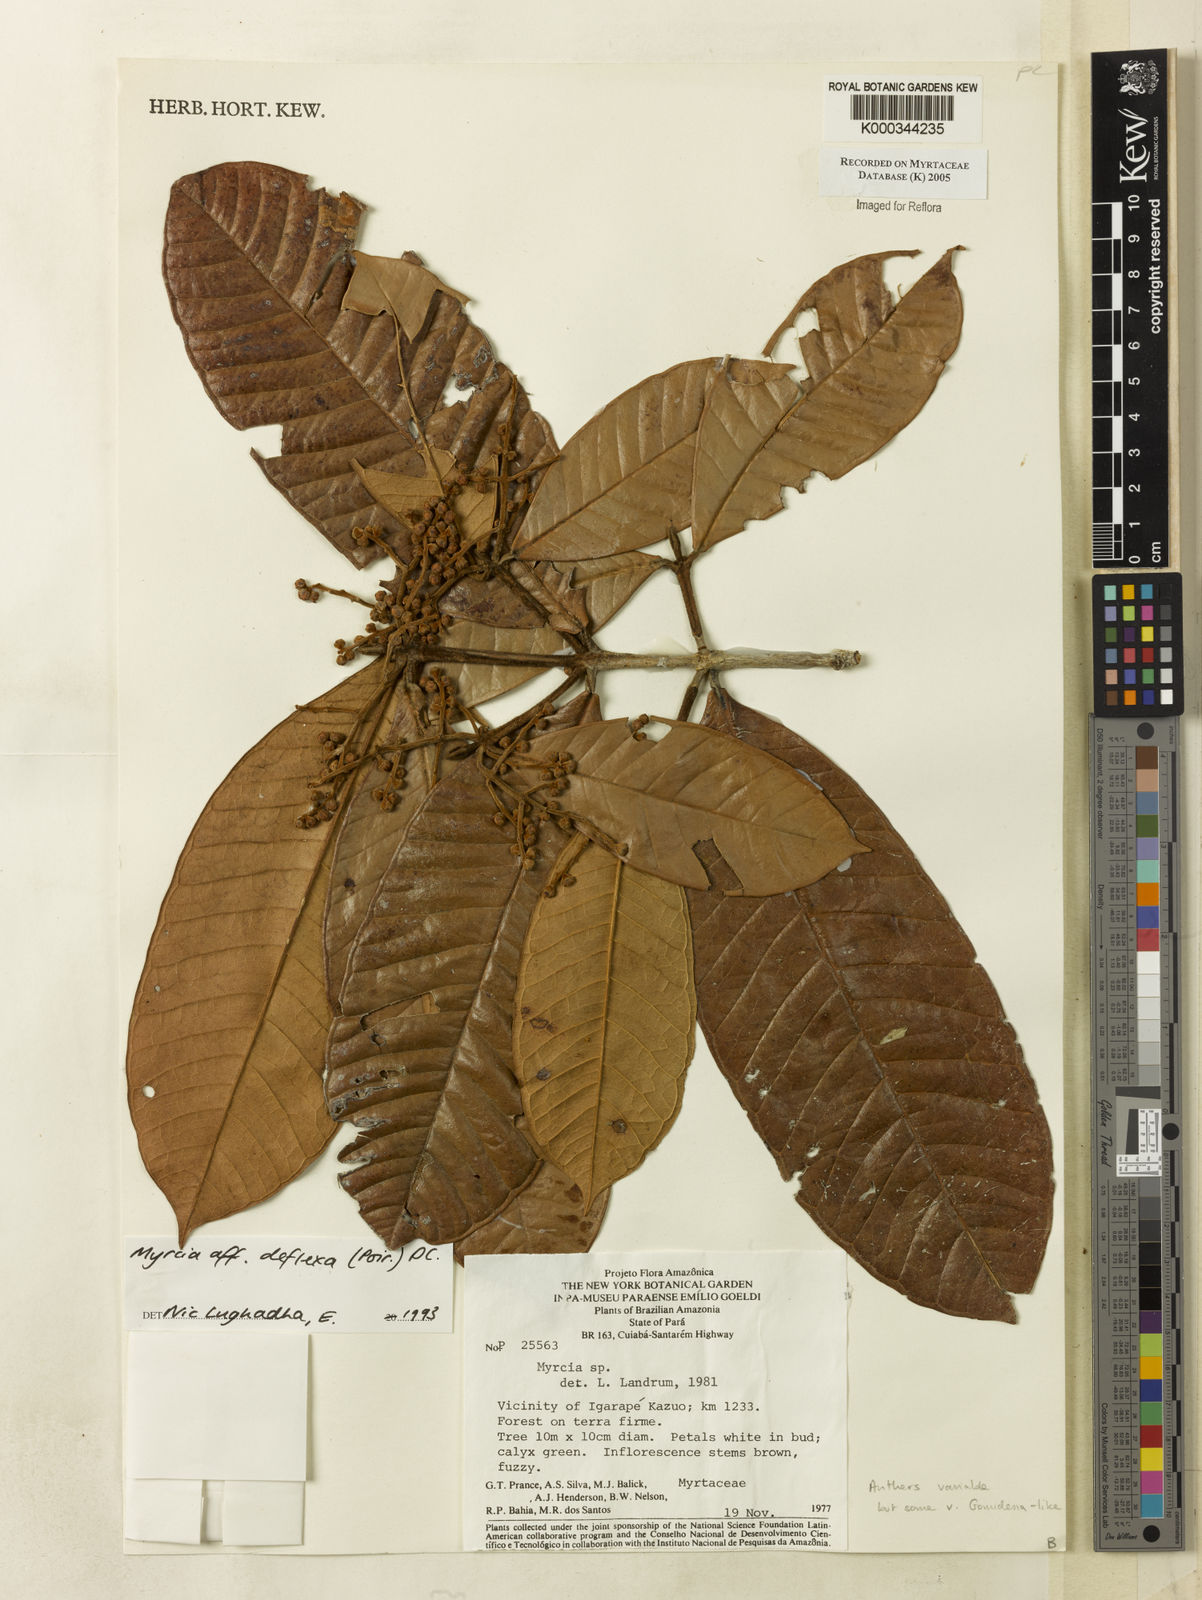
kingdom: Plantae
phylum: Tracheophyta
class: Magnoliopsida
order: Myrtales
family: Myrtaceae
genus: Myrcia
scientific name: Myrcia deflexa
